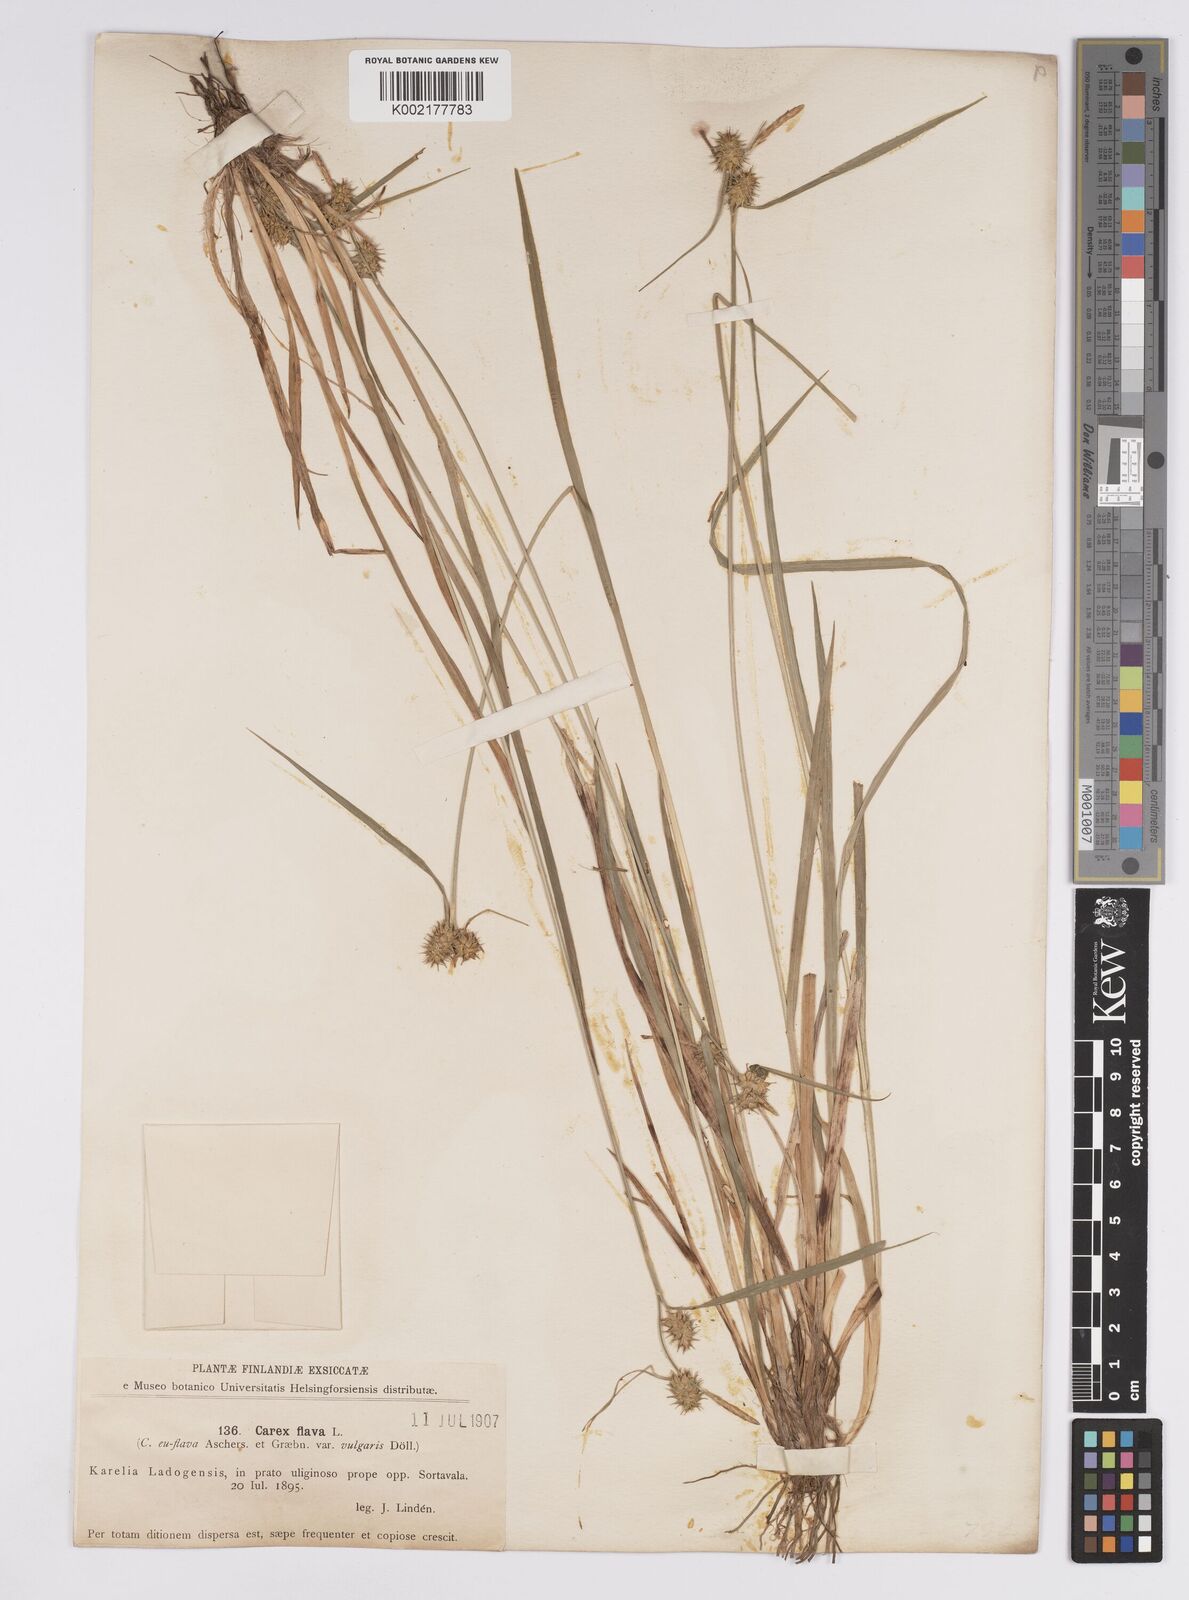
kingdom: Plantae
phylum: Tracheophyta
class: Liliopsida
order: Poales
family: Cyperaceae
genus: Carex
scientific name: Carex flava
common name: Large yellow-sedge
